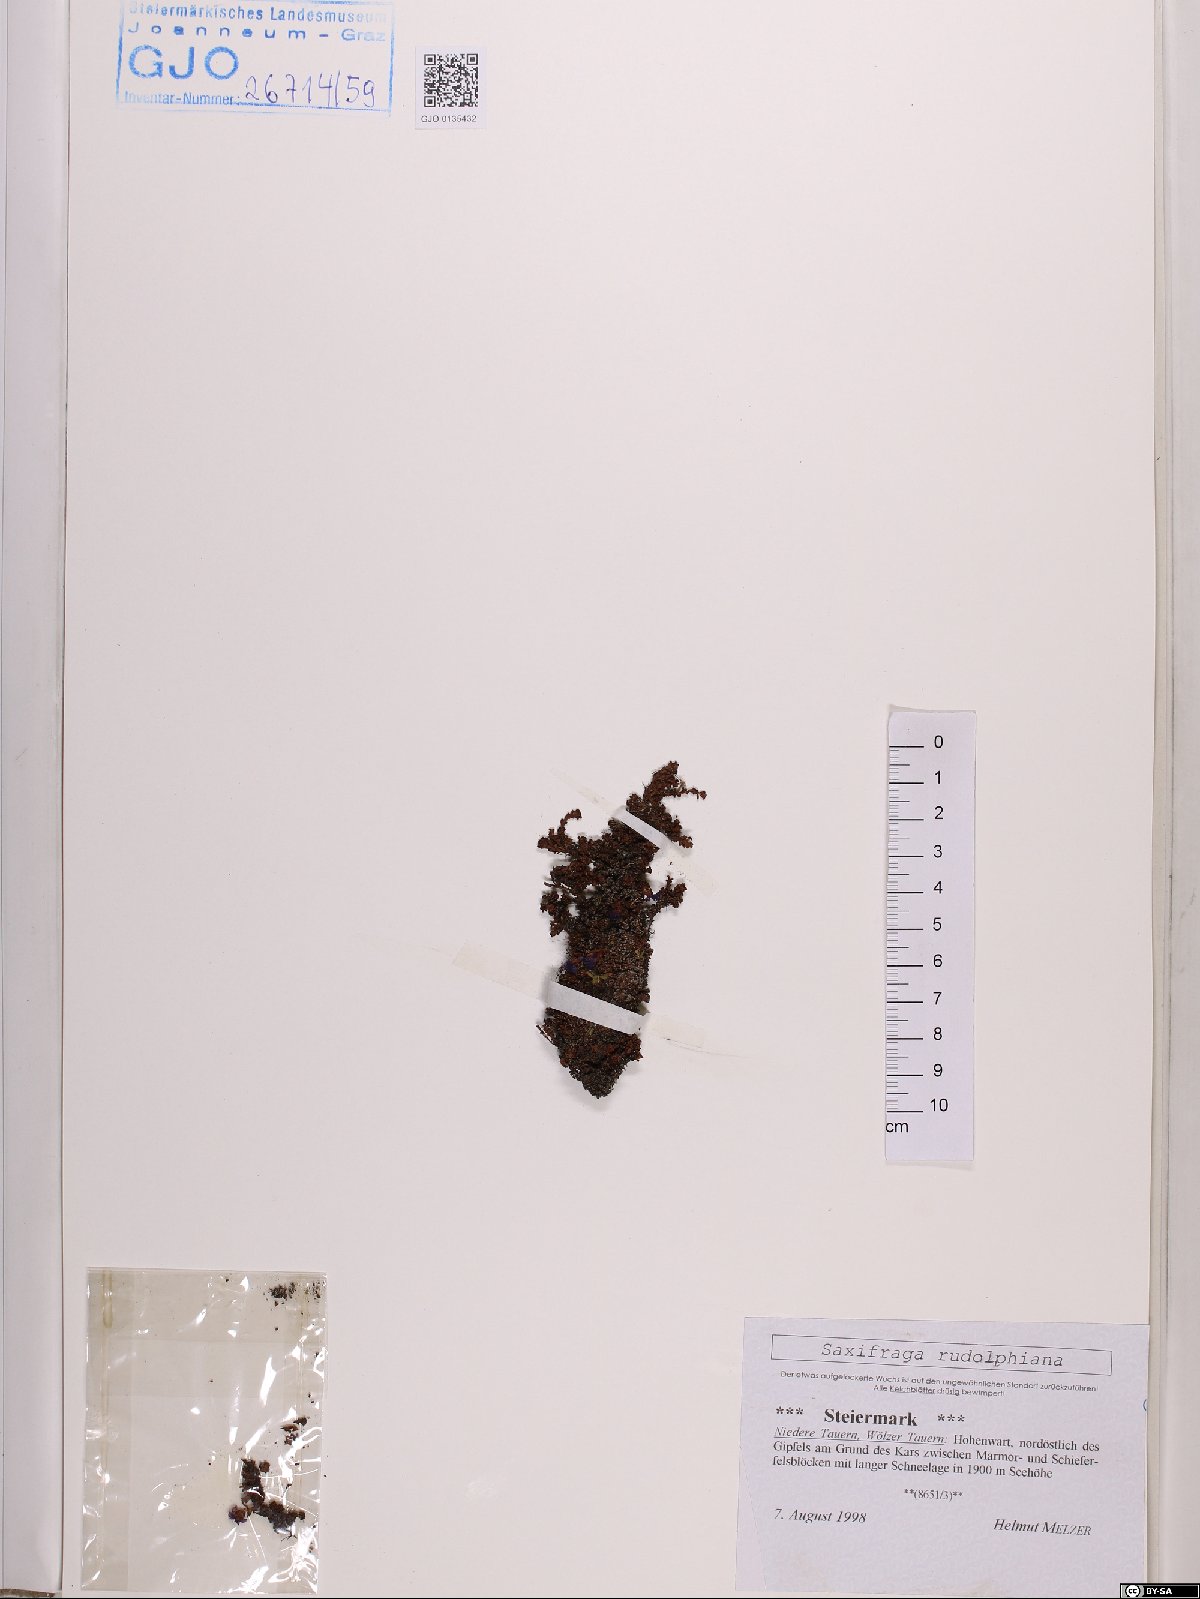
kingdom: Plantae
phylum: Tracheophyta
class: Magnoliopsida
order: Saxifragales
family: Saxifragaceae
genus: Saxifraga
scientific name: Saxifraga oppositifolia
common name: Purple saxifrage
